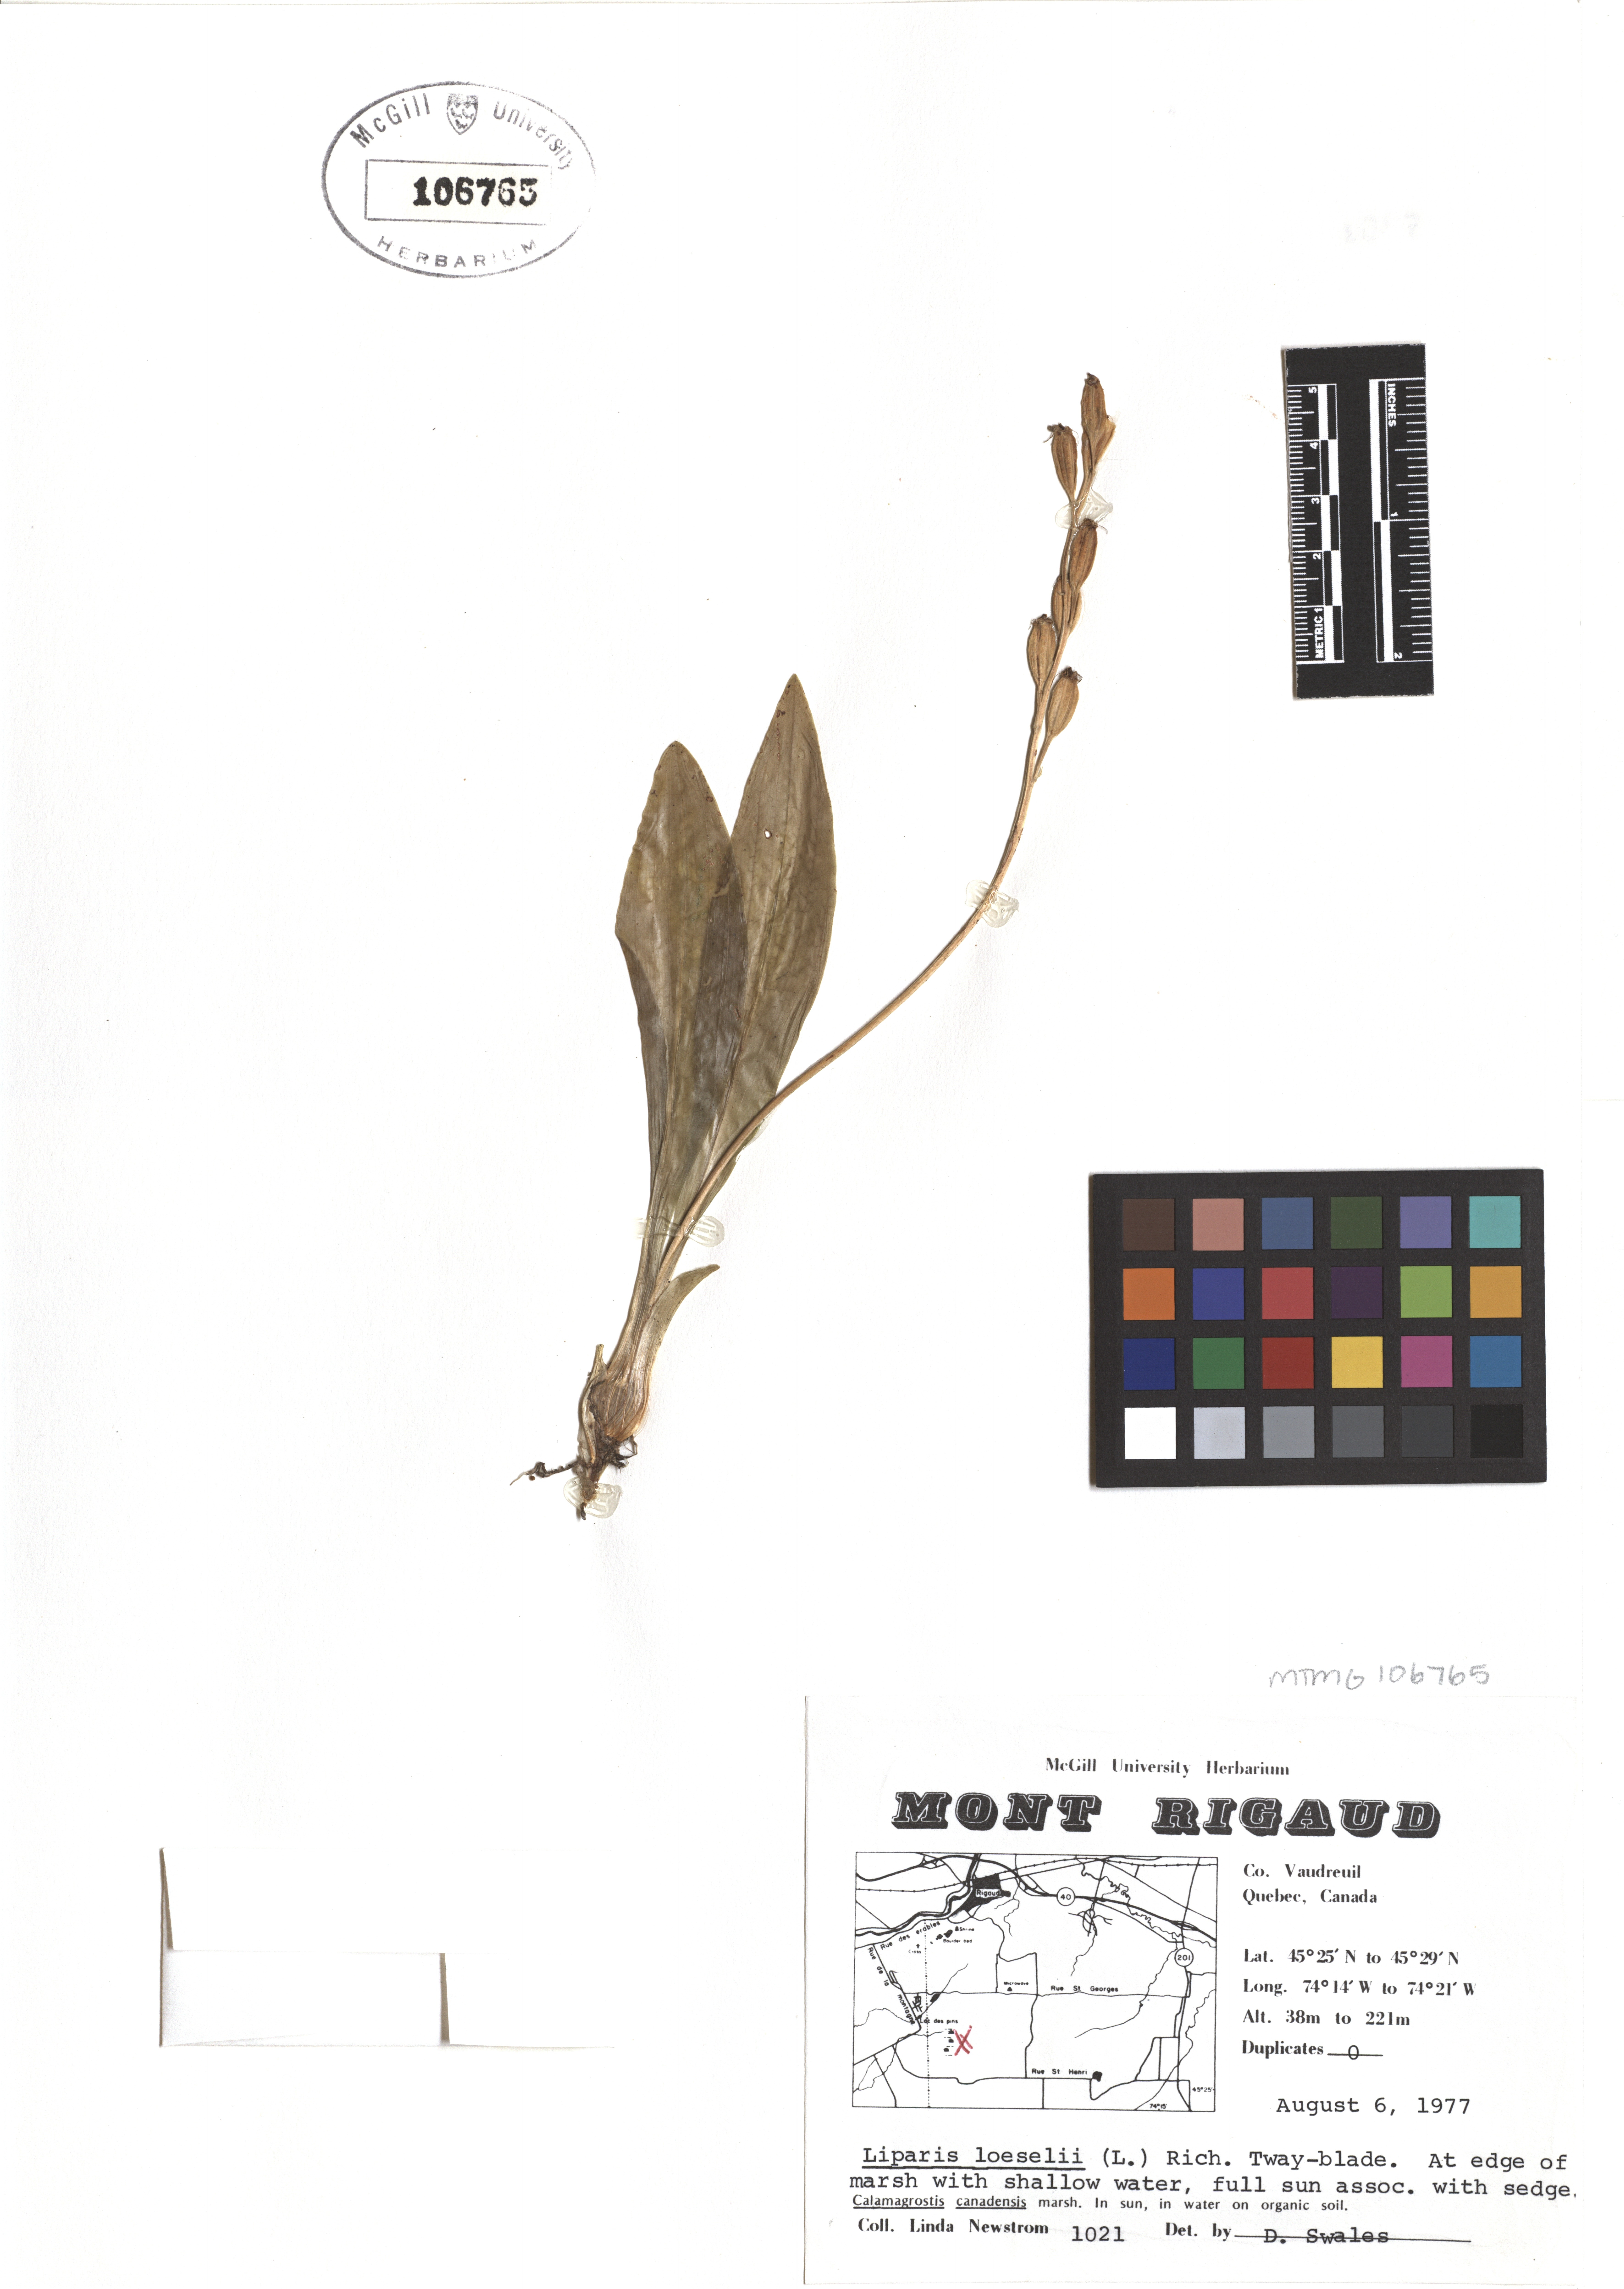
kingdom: Animalia
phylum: Arthropoda
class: Insecta
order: Coleoptera
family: Curculionidae
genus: Liparis
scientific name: Liparis loeselii
